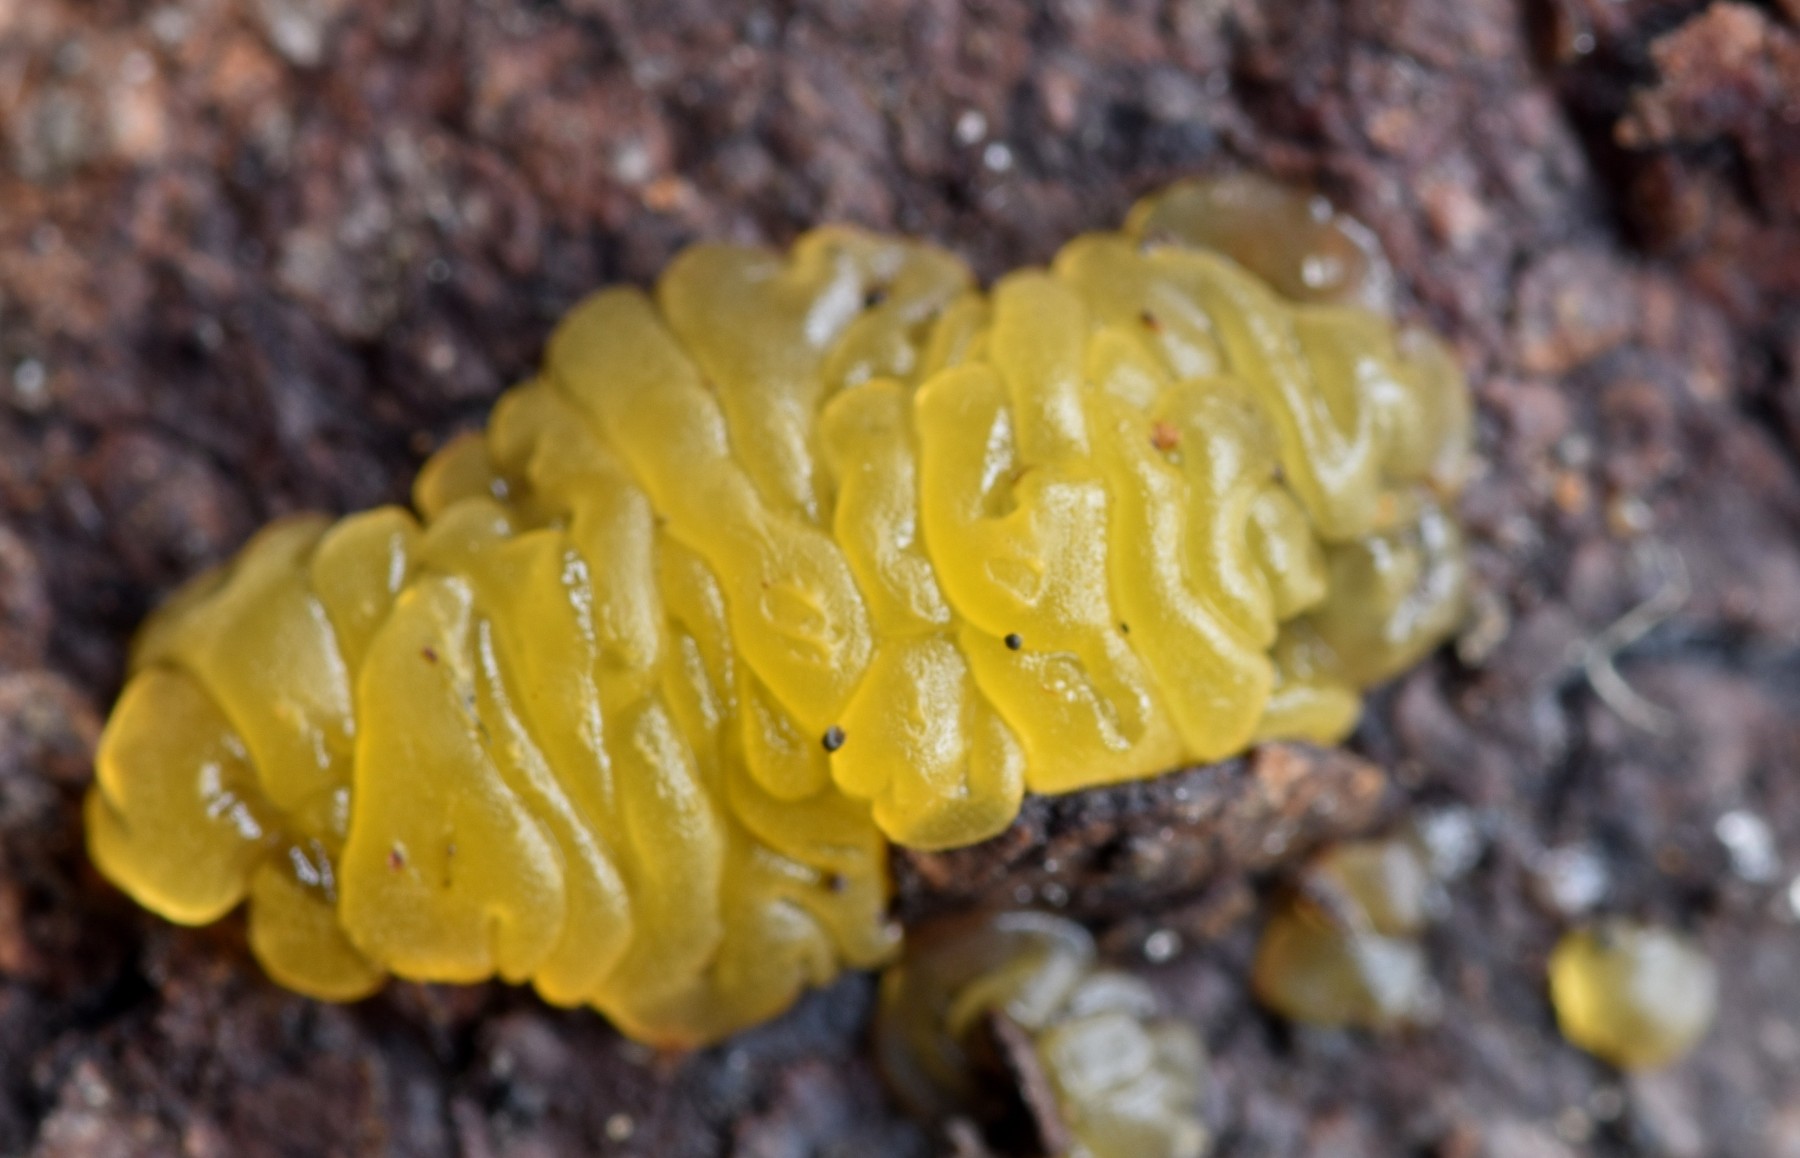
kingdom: Fungi
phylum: Basidiomycota
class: Dacrymycetes
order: Dacrymycetales
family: Dacrymycetaceae
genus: Dacrymyces
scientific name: Dacrymyces lacrymalis
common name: rynket tåresvamp
